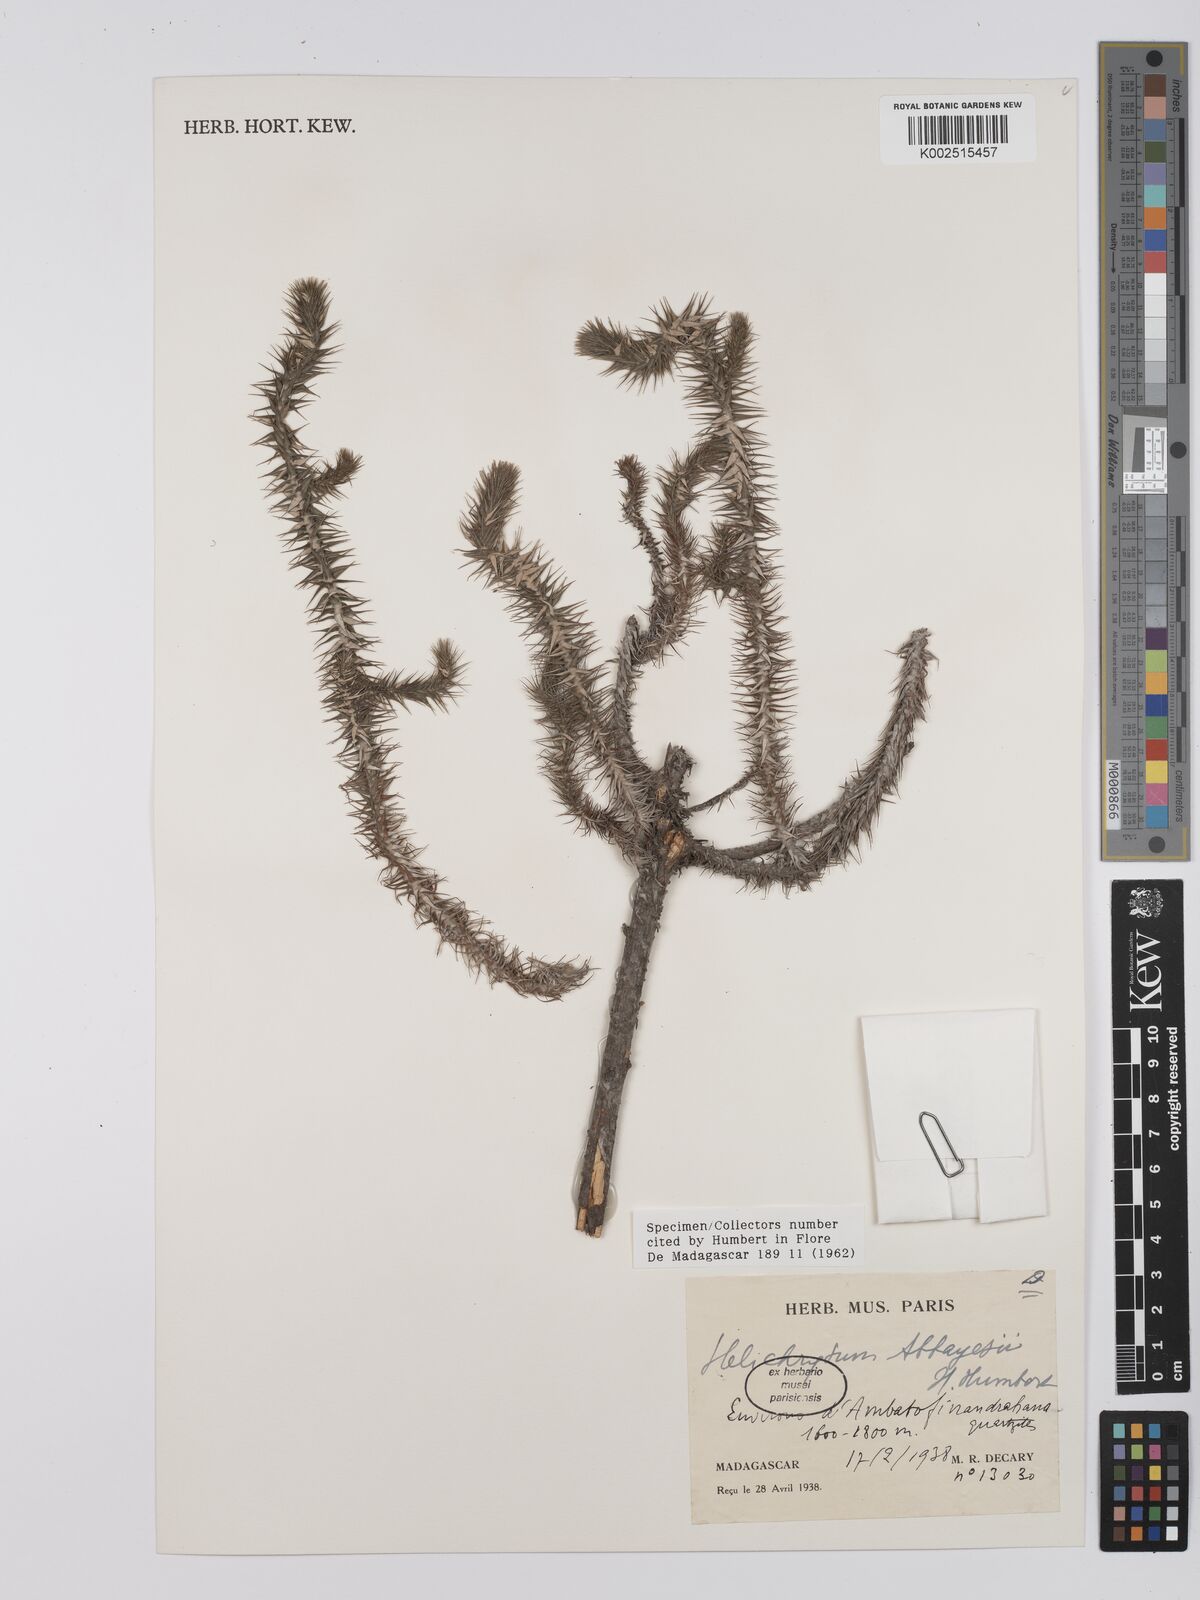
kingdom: Plantae
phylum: Tracheophyta
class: Magnoliopsida
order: Asterales
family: Asteraceae
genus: Helichrysum
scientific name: Helichrysum abbayesii
